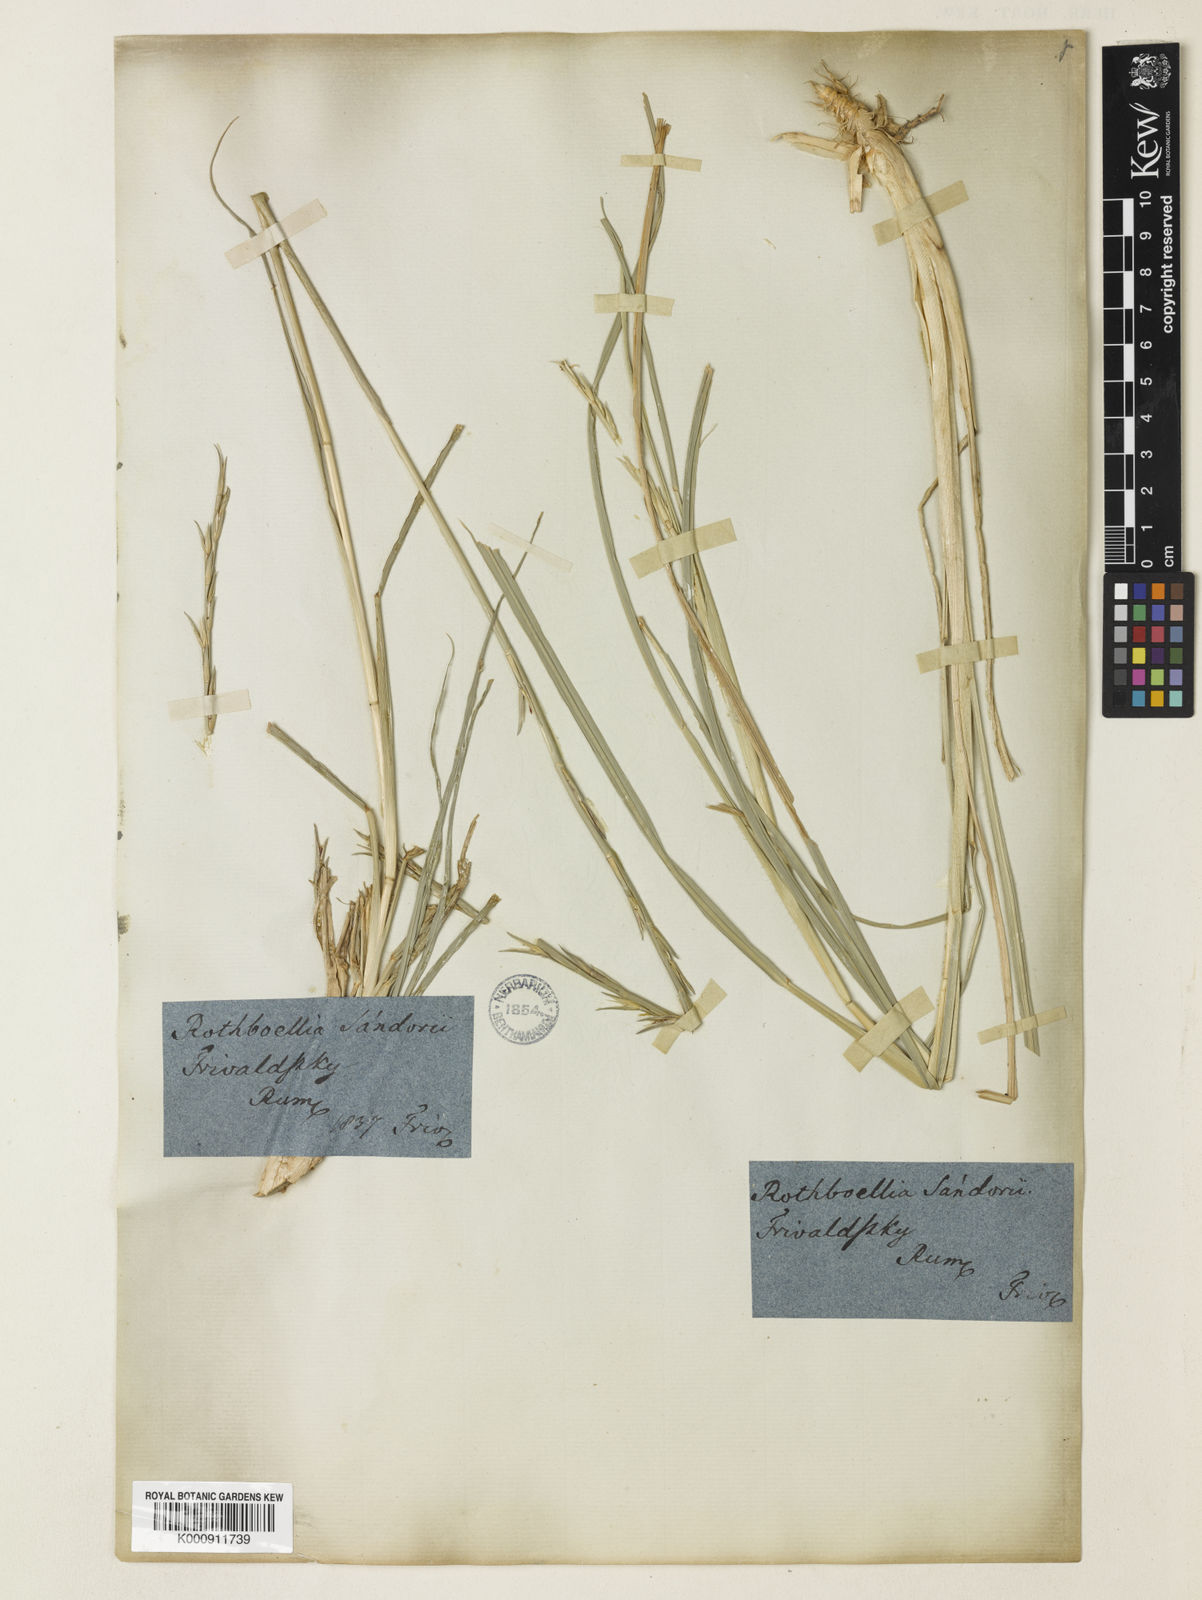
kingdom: Plantae
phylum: Tracheophyta
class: Liliopsida
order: Poales
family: Poaceae
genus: Phacelurus
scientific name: Phacelurus digitatus
